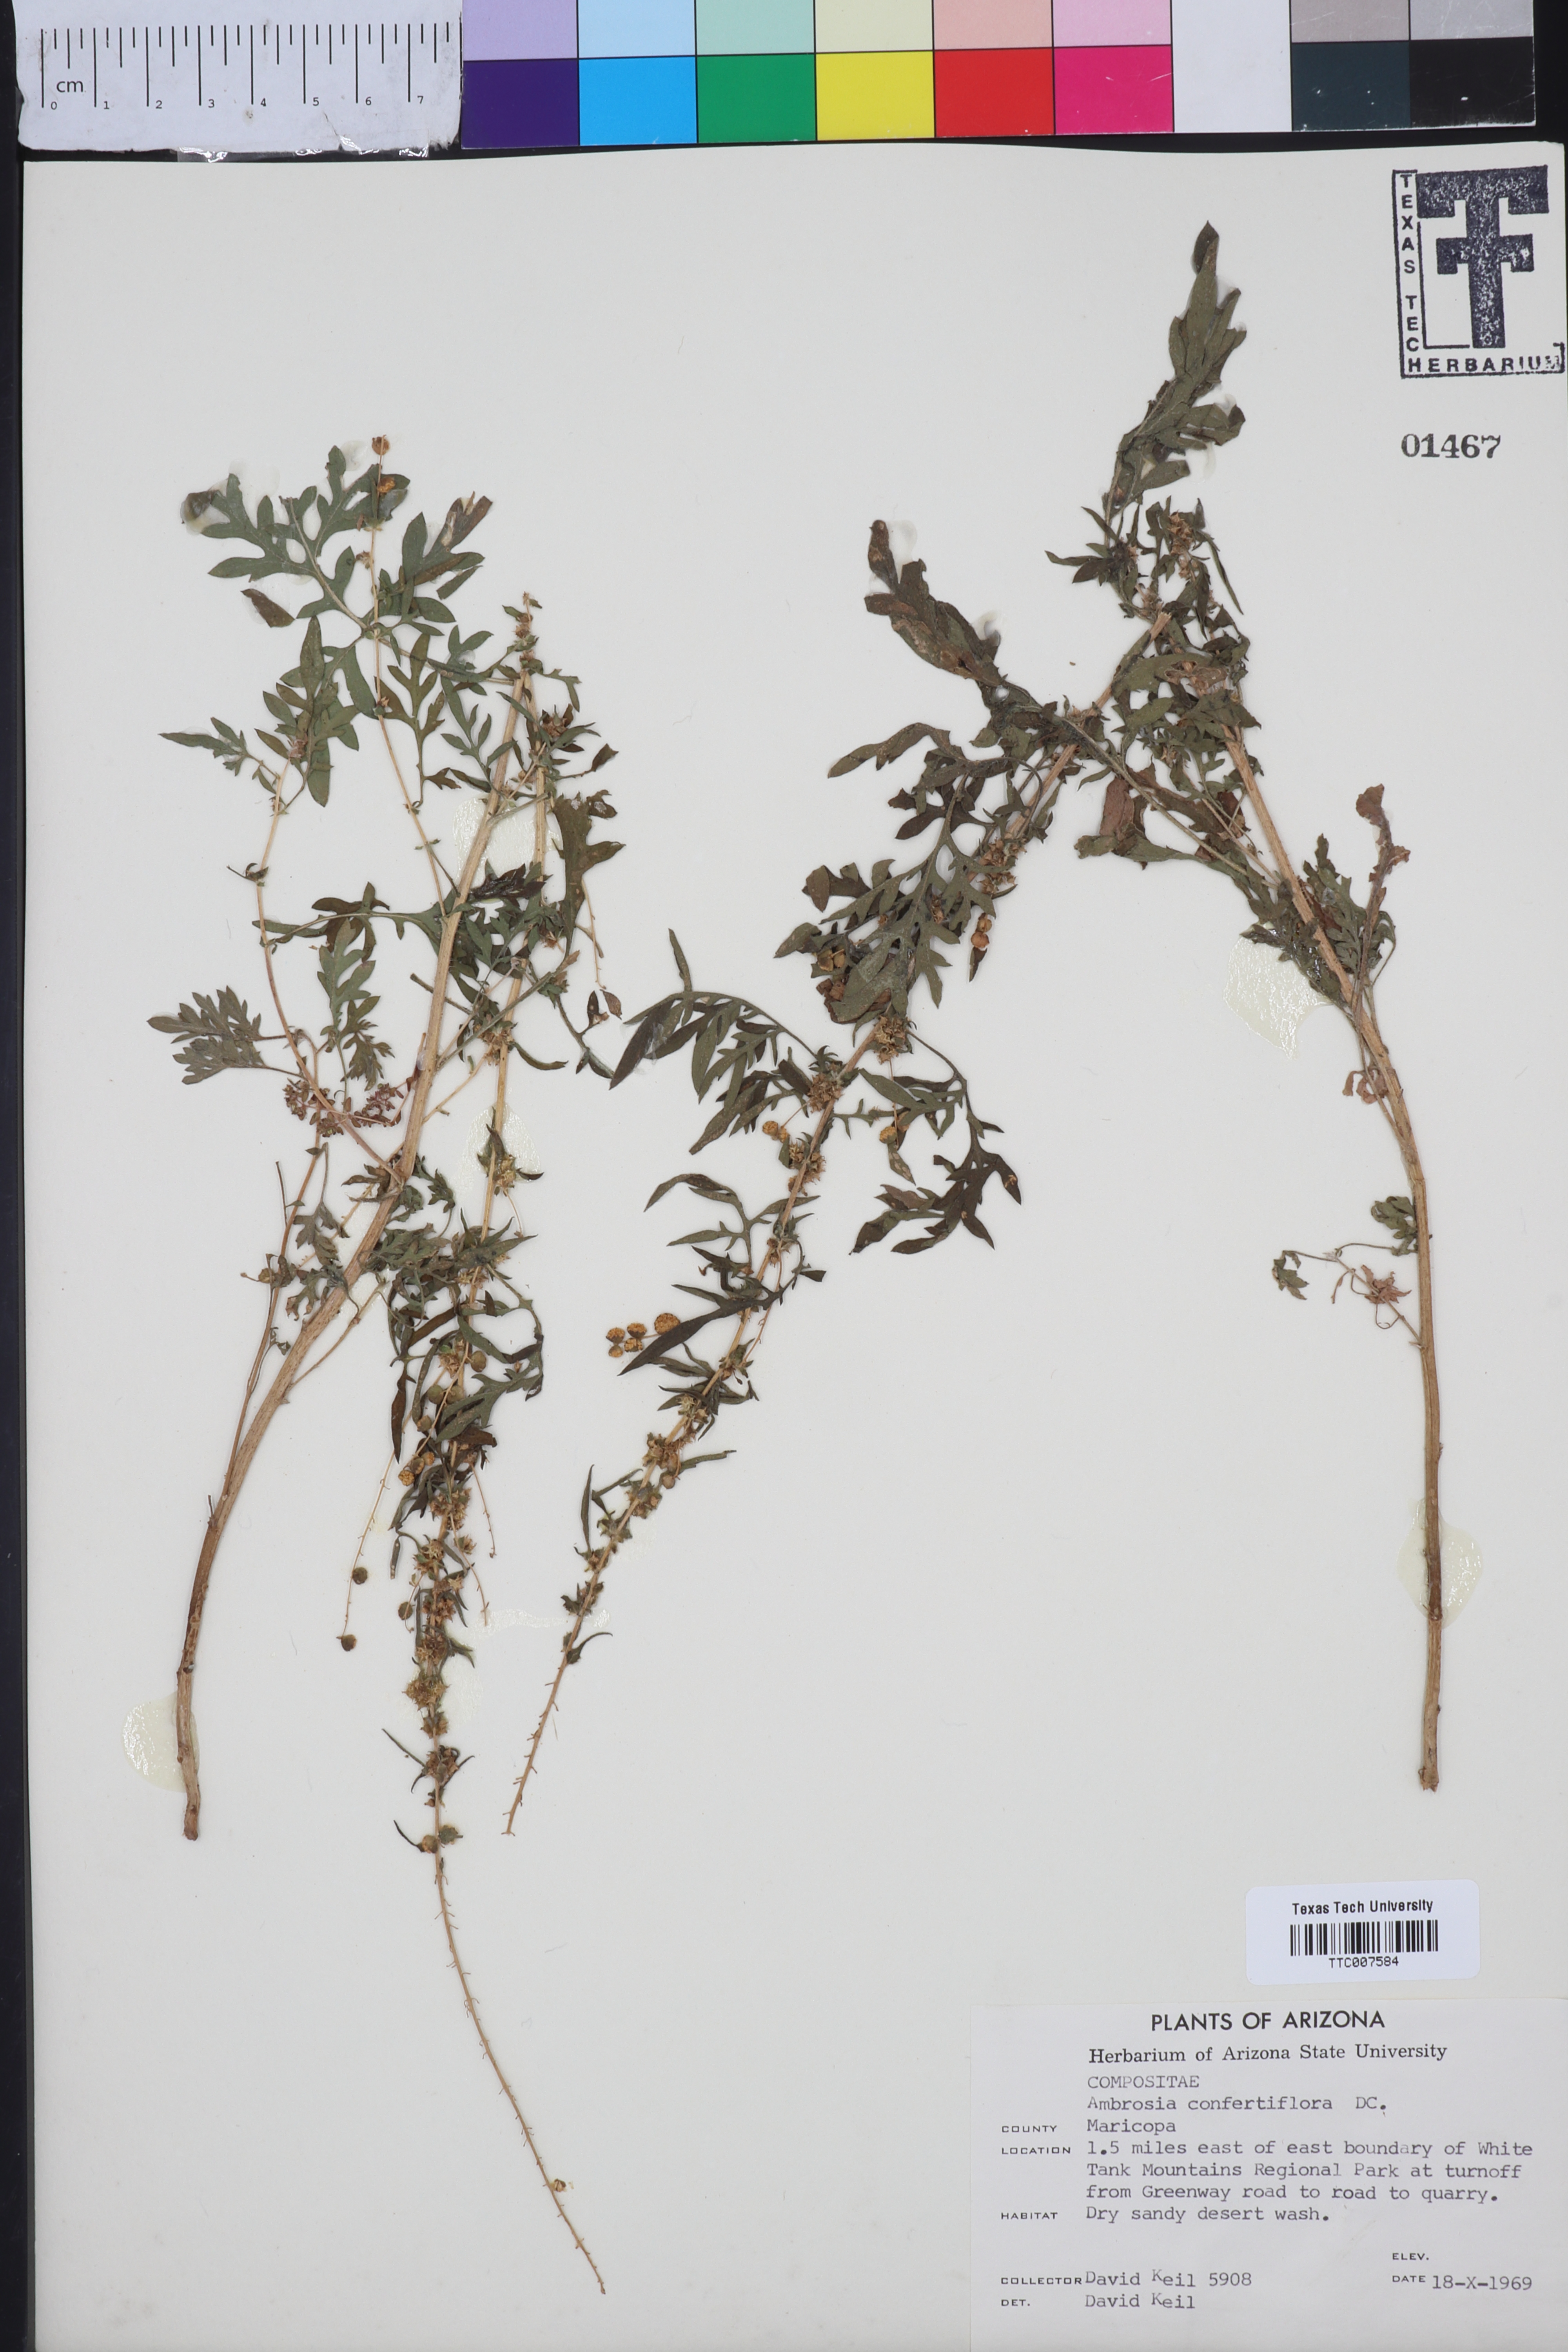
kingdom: Plantae
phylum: Tracheophyta
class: Magnoliopsida
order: Asterales
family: Asteraceae
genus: Ambrosia
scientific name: Ambrosia confertiflora
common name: Bur ragweed
